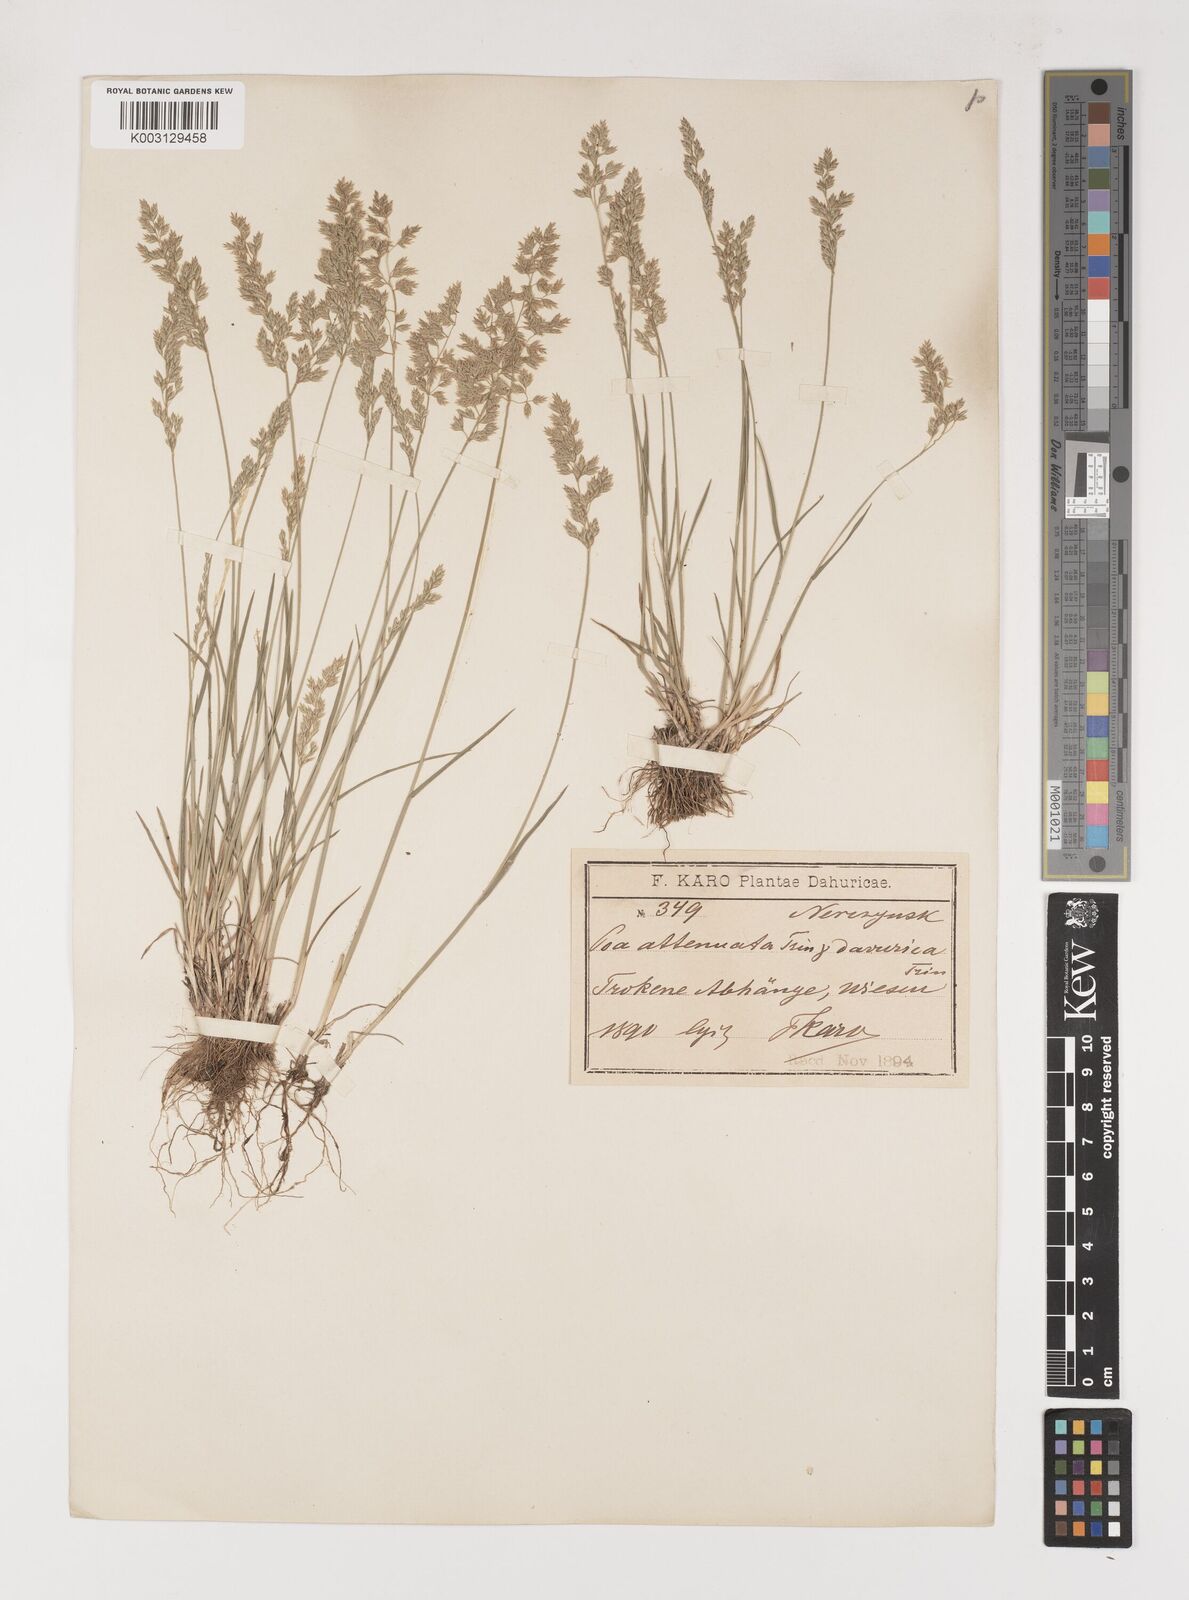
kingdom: Plantae
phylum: Tracheophyta
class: Liliopsida
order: Poales
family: Poaceae
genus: Poa
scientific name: Poa attenuata
